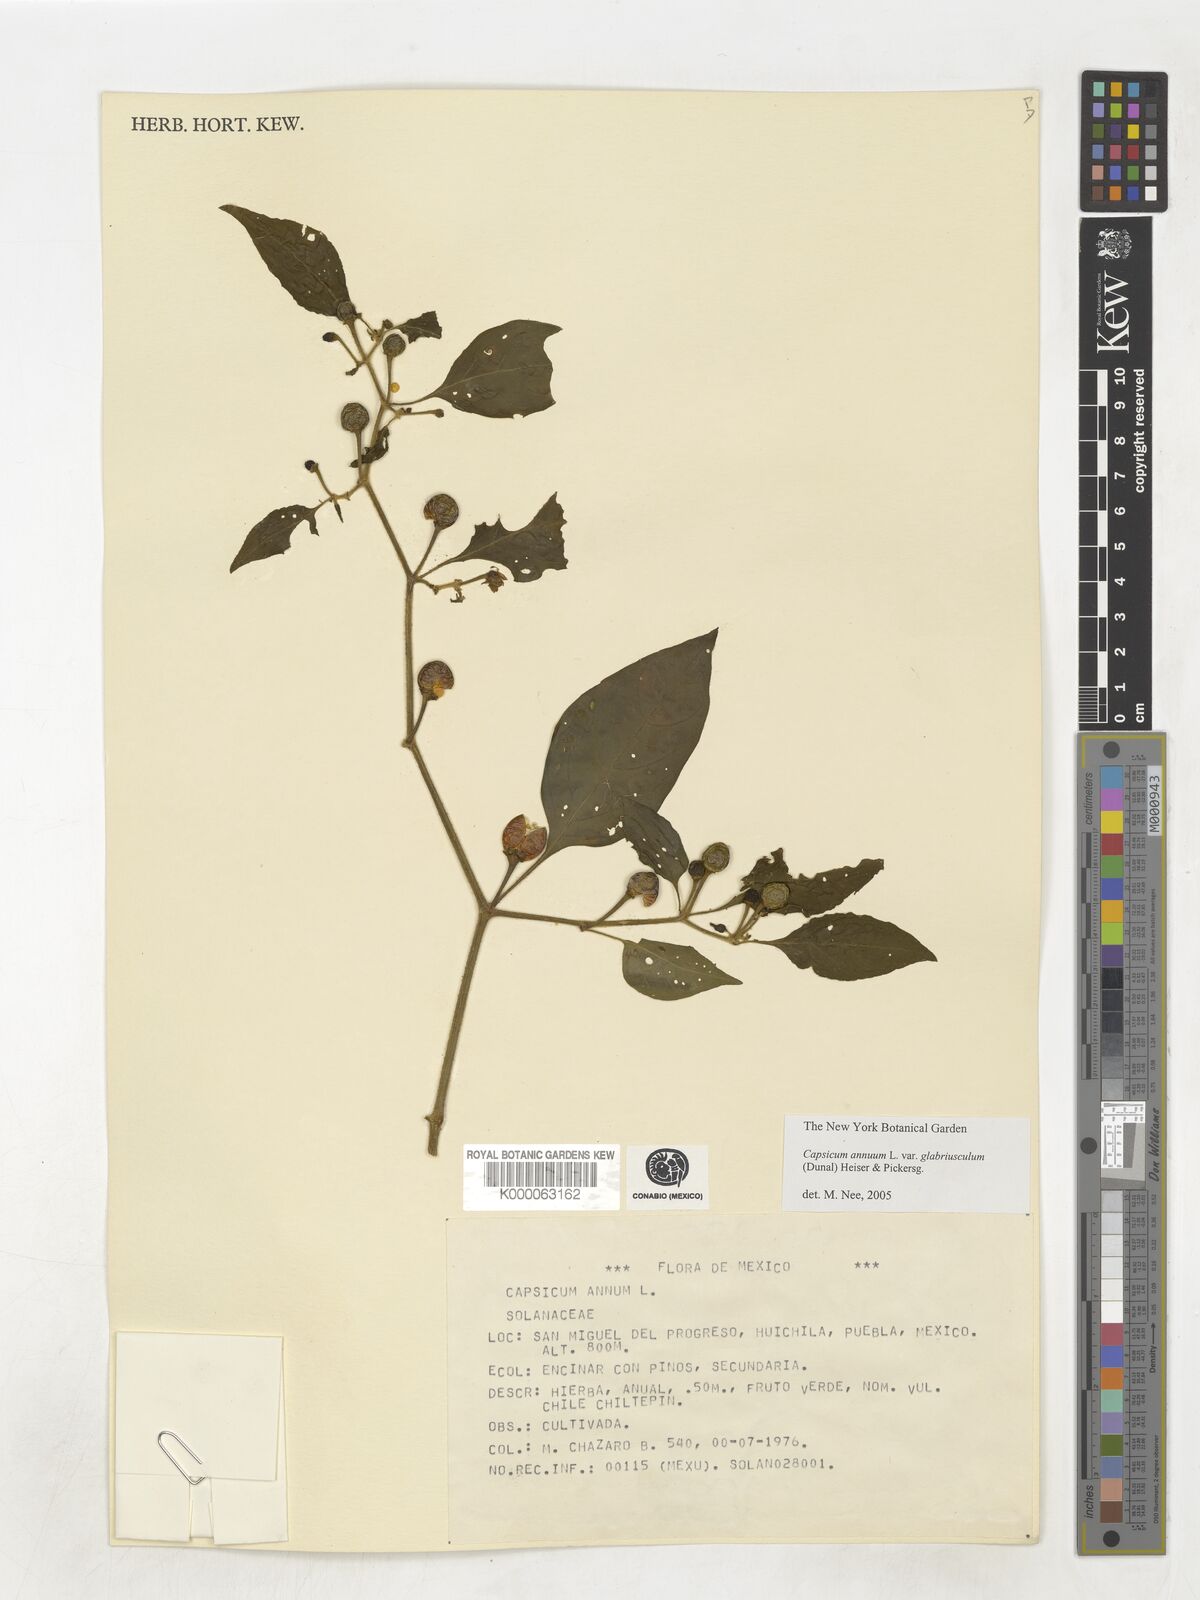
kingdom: Plantae
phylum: Tracheophyta
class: Magnoliopsida
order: Solanales
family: Solanaceae
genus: Capsicum
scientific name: Capsicum annuum
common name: Sweet pepper
